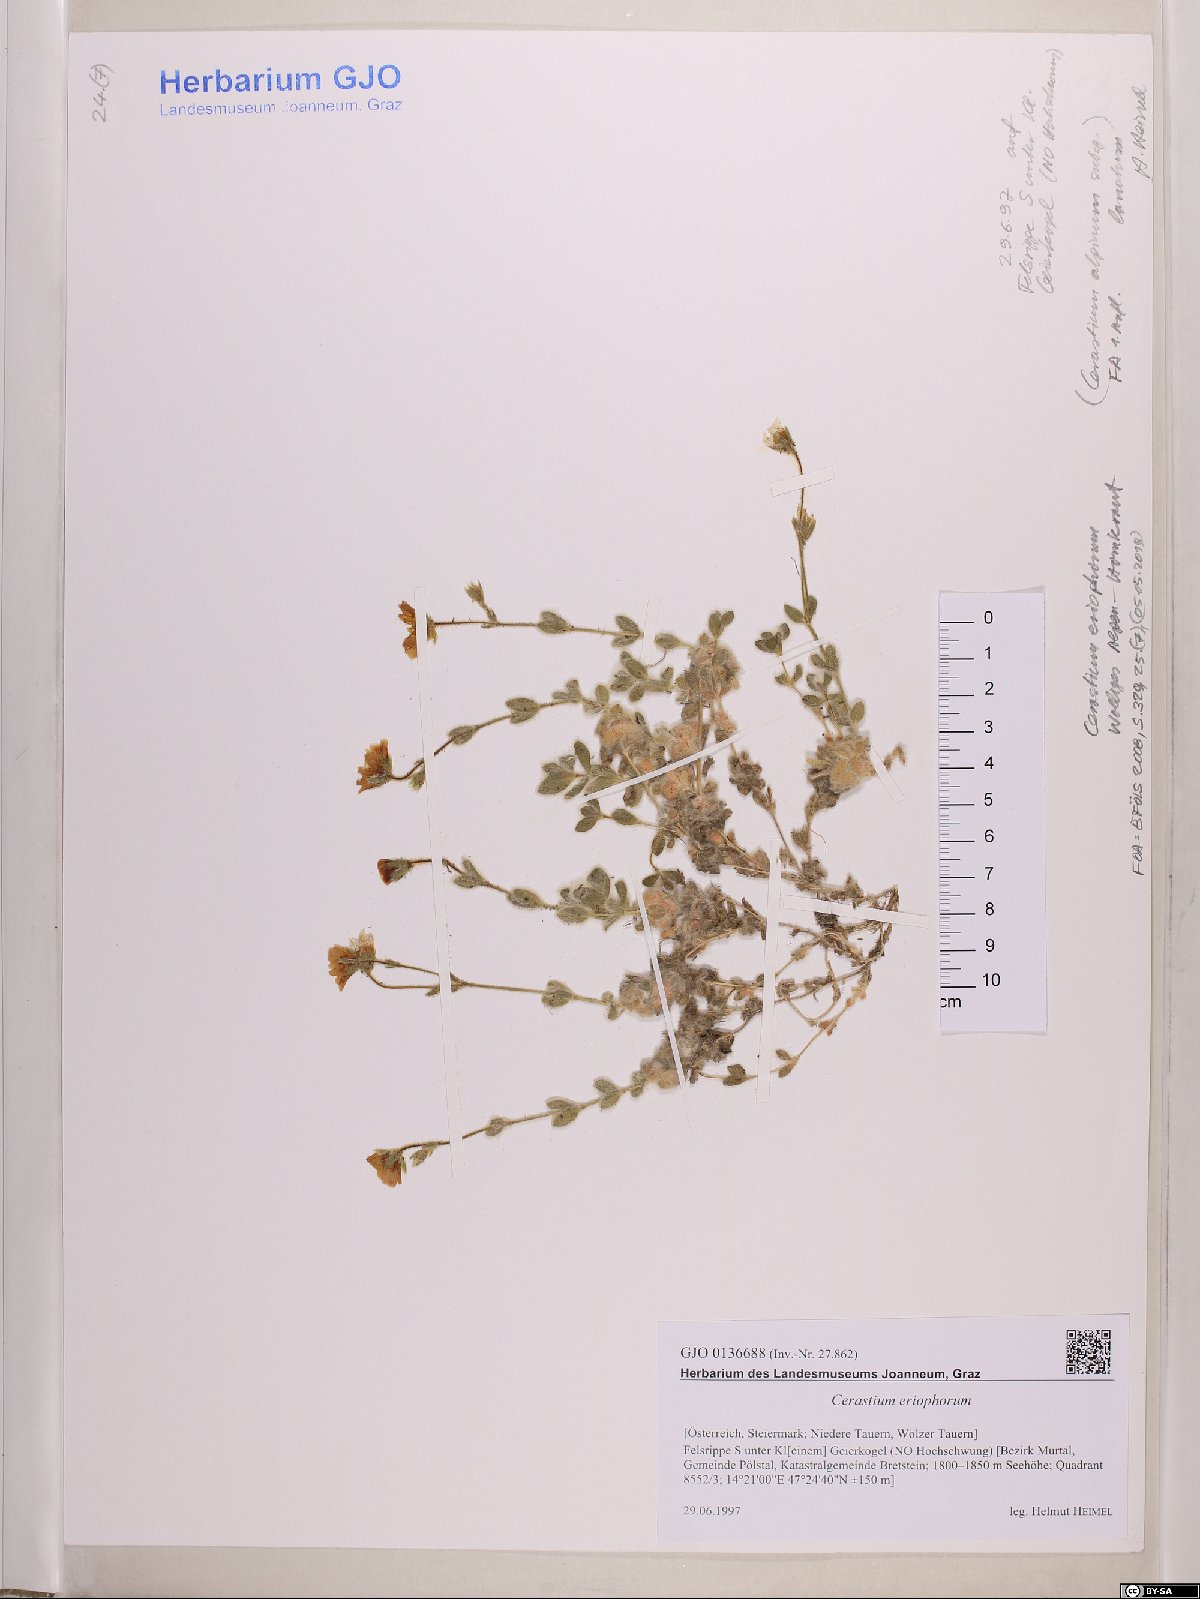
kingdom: Plantae
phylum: Tracheophyta
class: Magnoliopsida
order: Caryophyllales
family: Caryophyllaceae
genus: Cerastium
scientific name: Cerastium eriophorum
